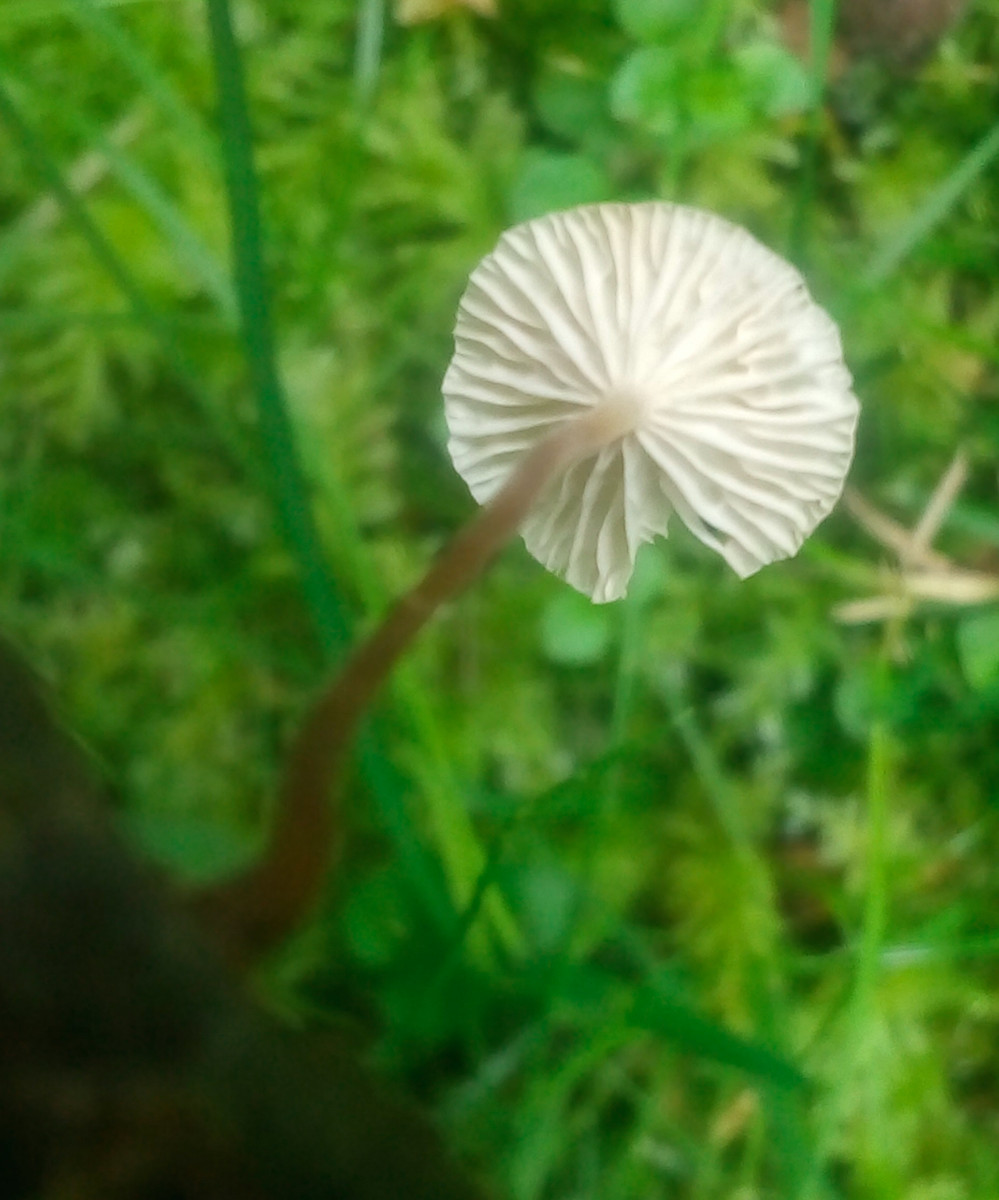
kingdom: Fungi
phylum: Basidiomycota
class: Agaricomycetes
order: Agaricales
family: Omphalotaceae
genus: Collybiopsis
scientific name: Collybiopsis vaillantii
